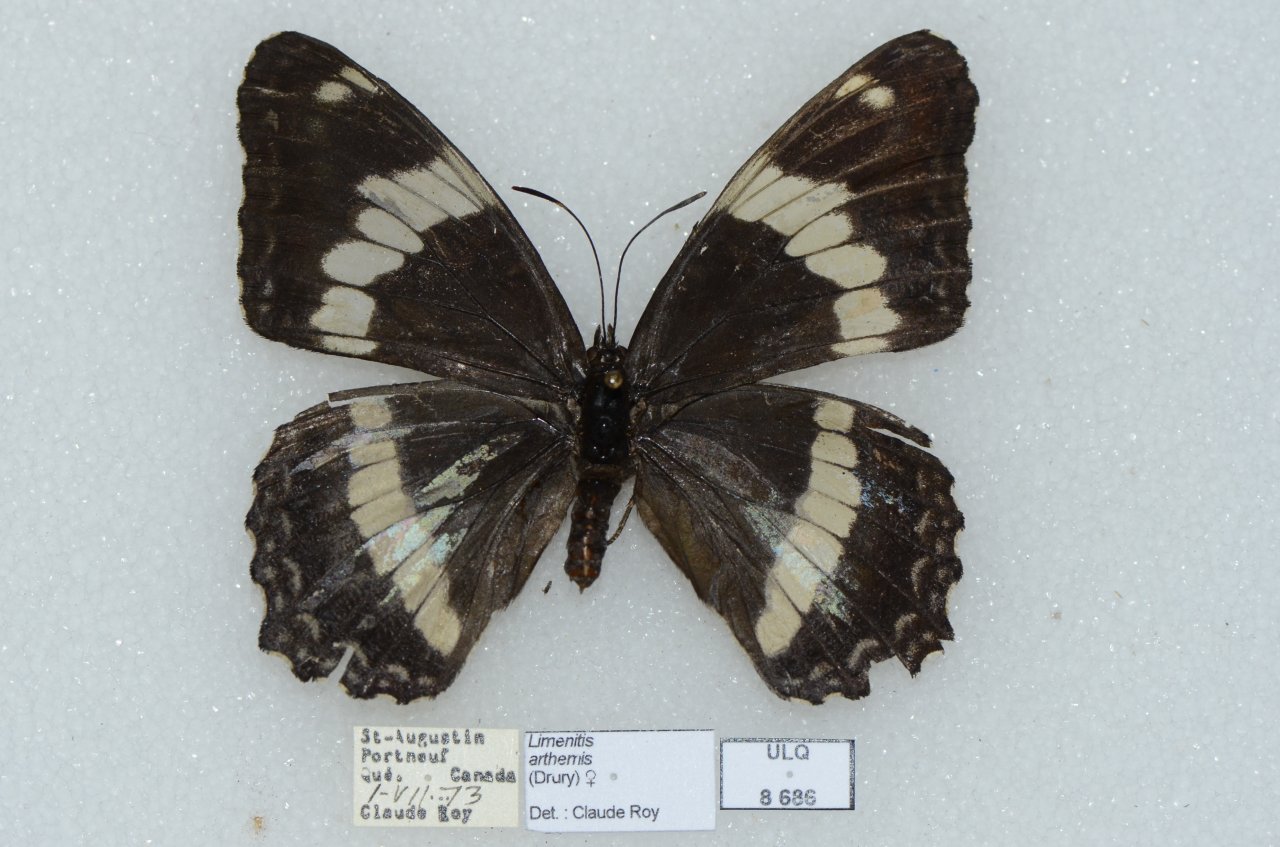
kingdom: Animalia
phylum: Arthropoda
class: Insecta
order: Lepidoptera
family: Nymphalidae
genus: Limenitis
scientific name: Limenitis arthemis
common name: Red-spotted Admiral
